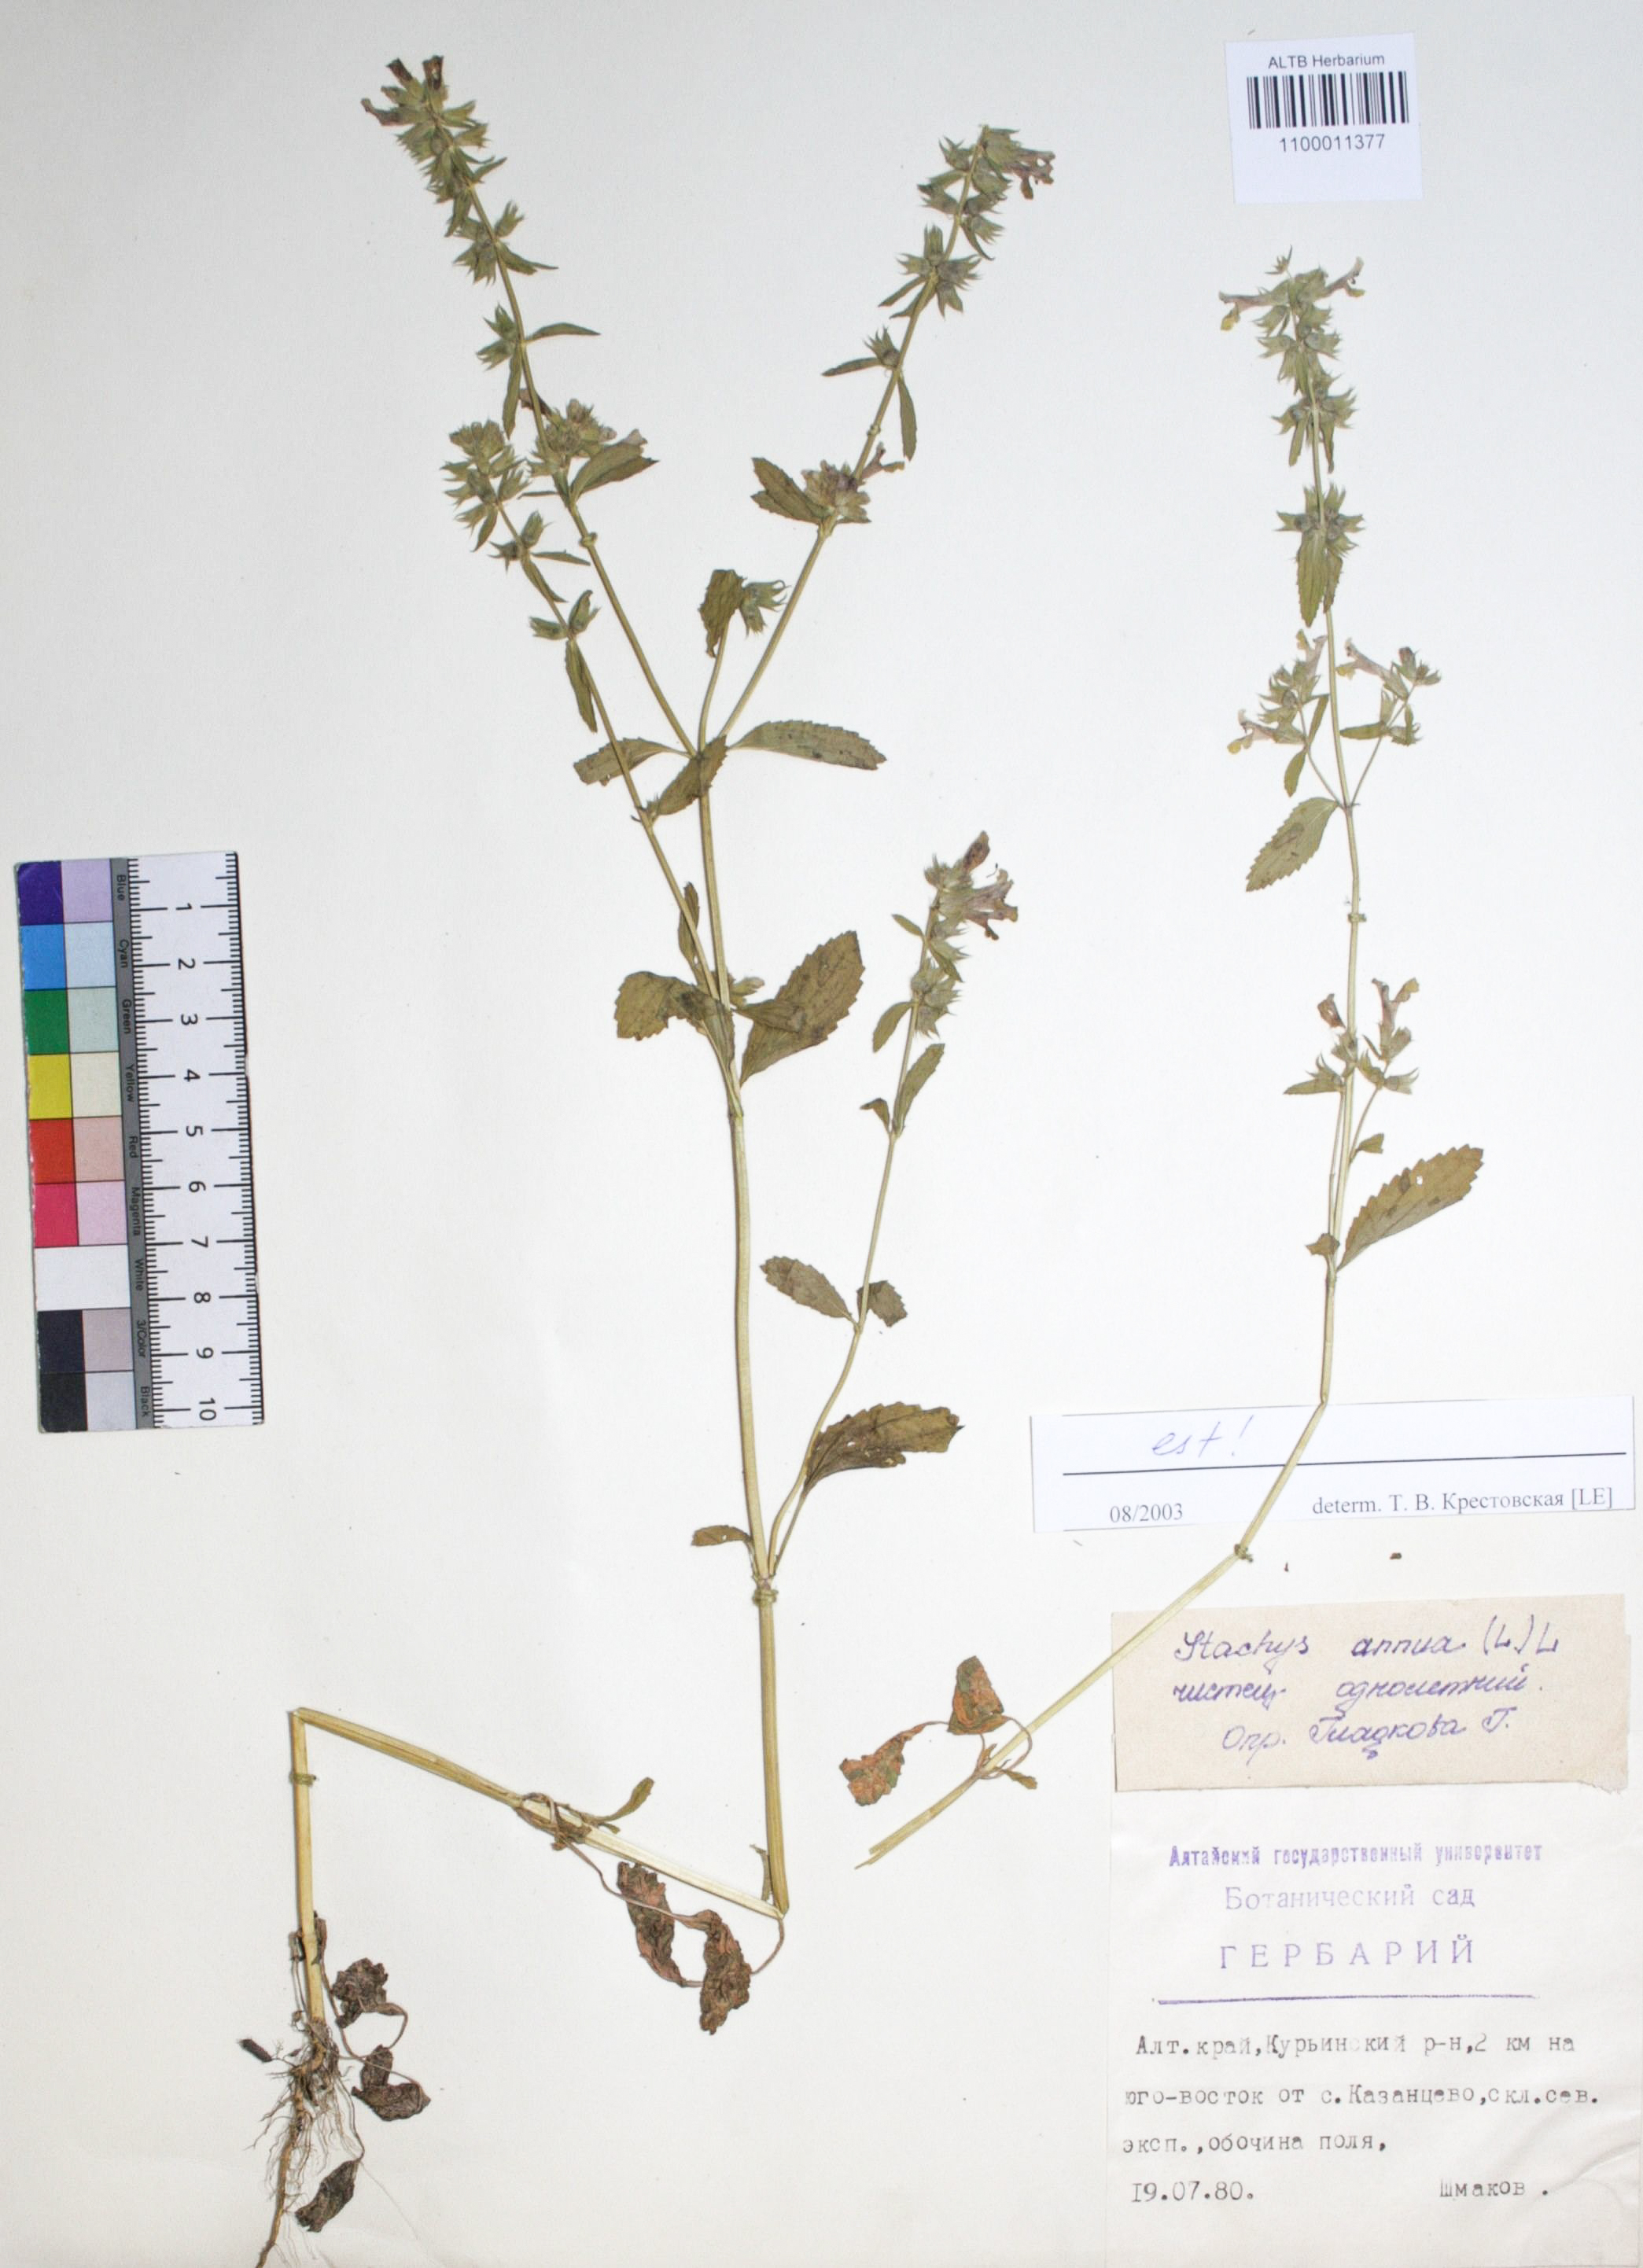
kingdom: Plantae
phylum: Tracheophyta
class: Magnoliopsida
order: Lamiales
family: Lamiaceae
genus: Stachys
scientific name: Stachys annua
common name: Annual yellow-woundwort
